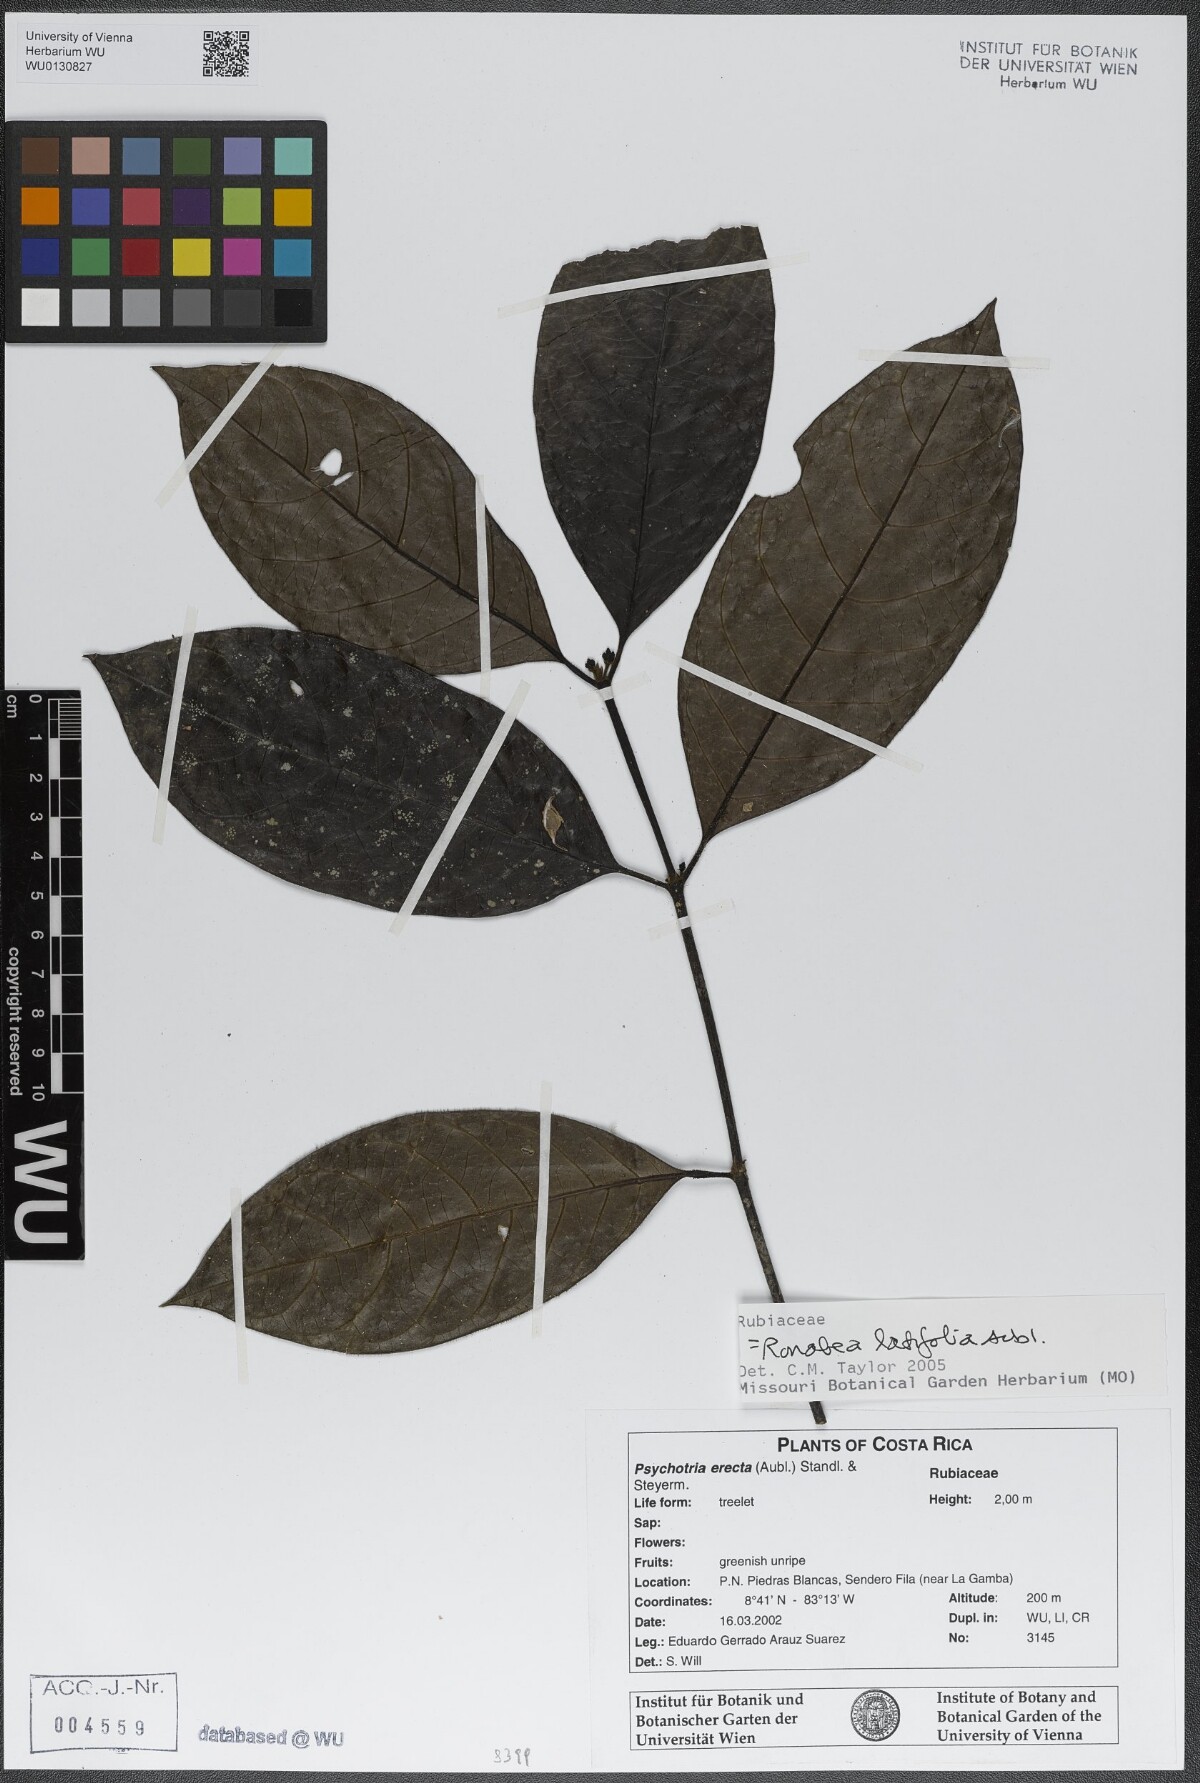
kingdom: Plantae
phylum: Tracheophyta
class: Magnoliopsida
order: Gentianales
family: Rubiaceae
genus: Ronabea
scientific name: Ronabea latifolia
